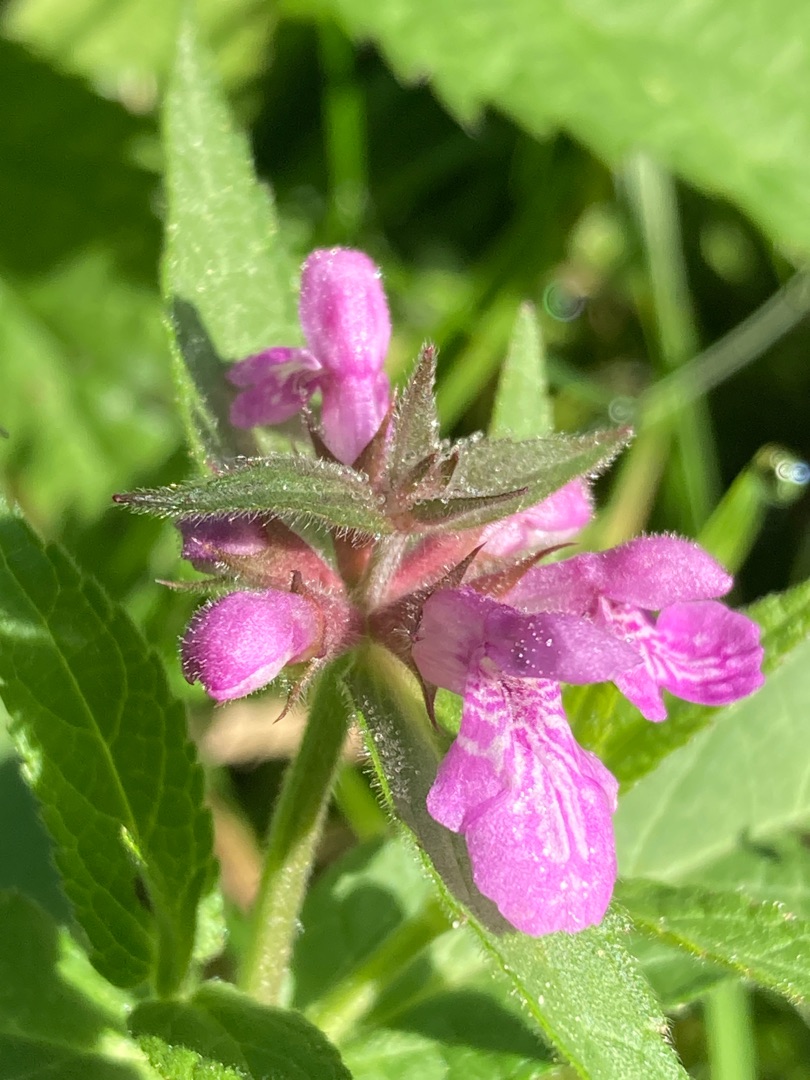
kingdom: Plantae
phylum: Tracheophyta
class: Magnoliopsida
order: Lamiales
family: Lamiaceae
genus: Stachys
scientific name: Stachys palustris
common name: Kær-galtetand
